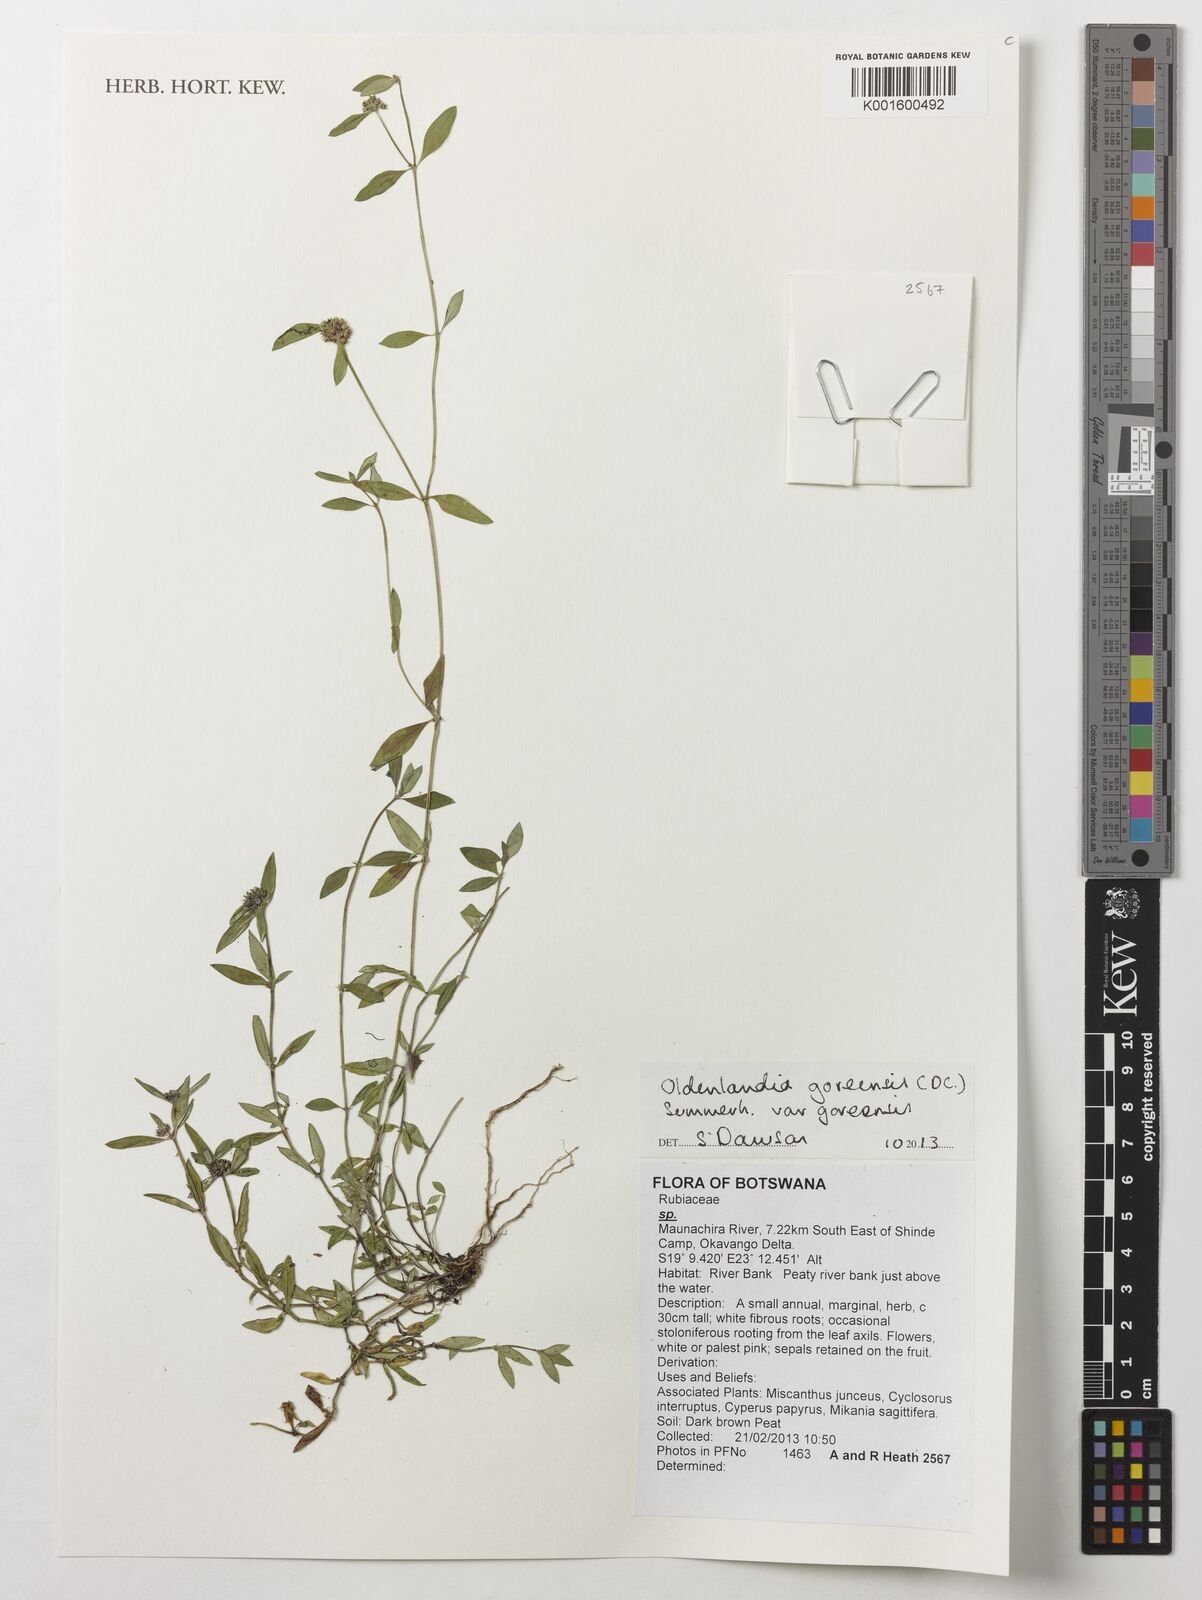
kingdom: Plantae
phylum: Tracheophyta
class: Magnoliopsida
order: Gentianales
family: Rubiaceae
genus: Edrastima
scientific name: Edrastima goreensis
